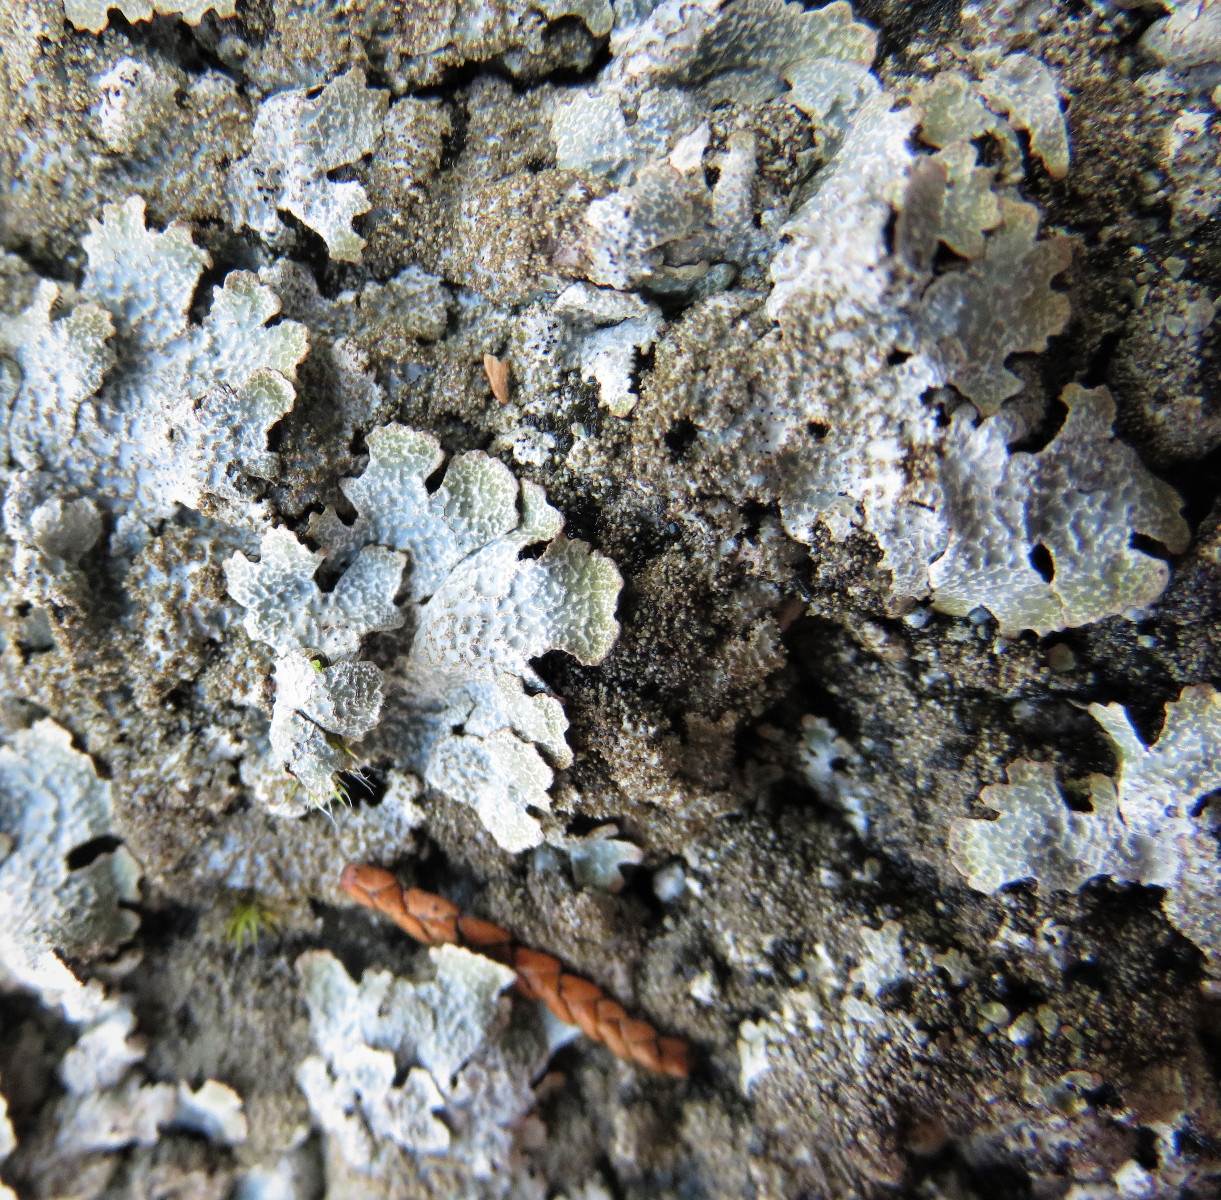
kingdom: Fungi
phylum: Ascomycota
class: Lecanoromycetes
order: Lecanorales
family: Parmeliaceae
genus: Parmelia
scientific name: Parmelia saxatilis
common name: farve-skållav
